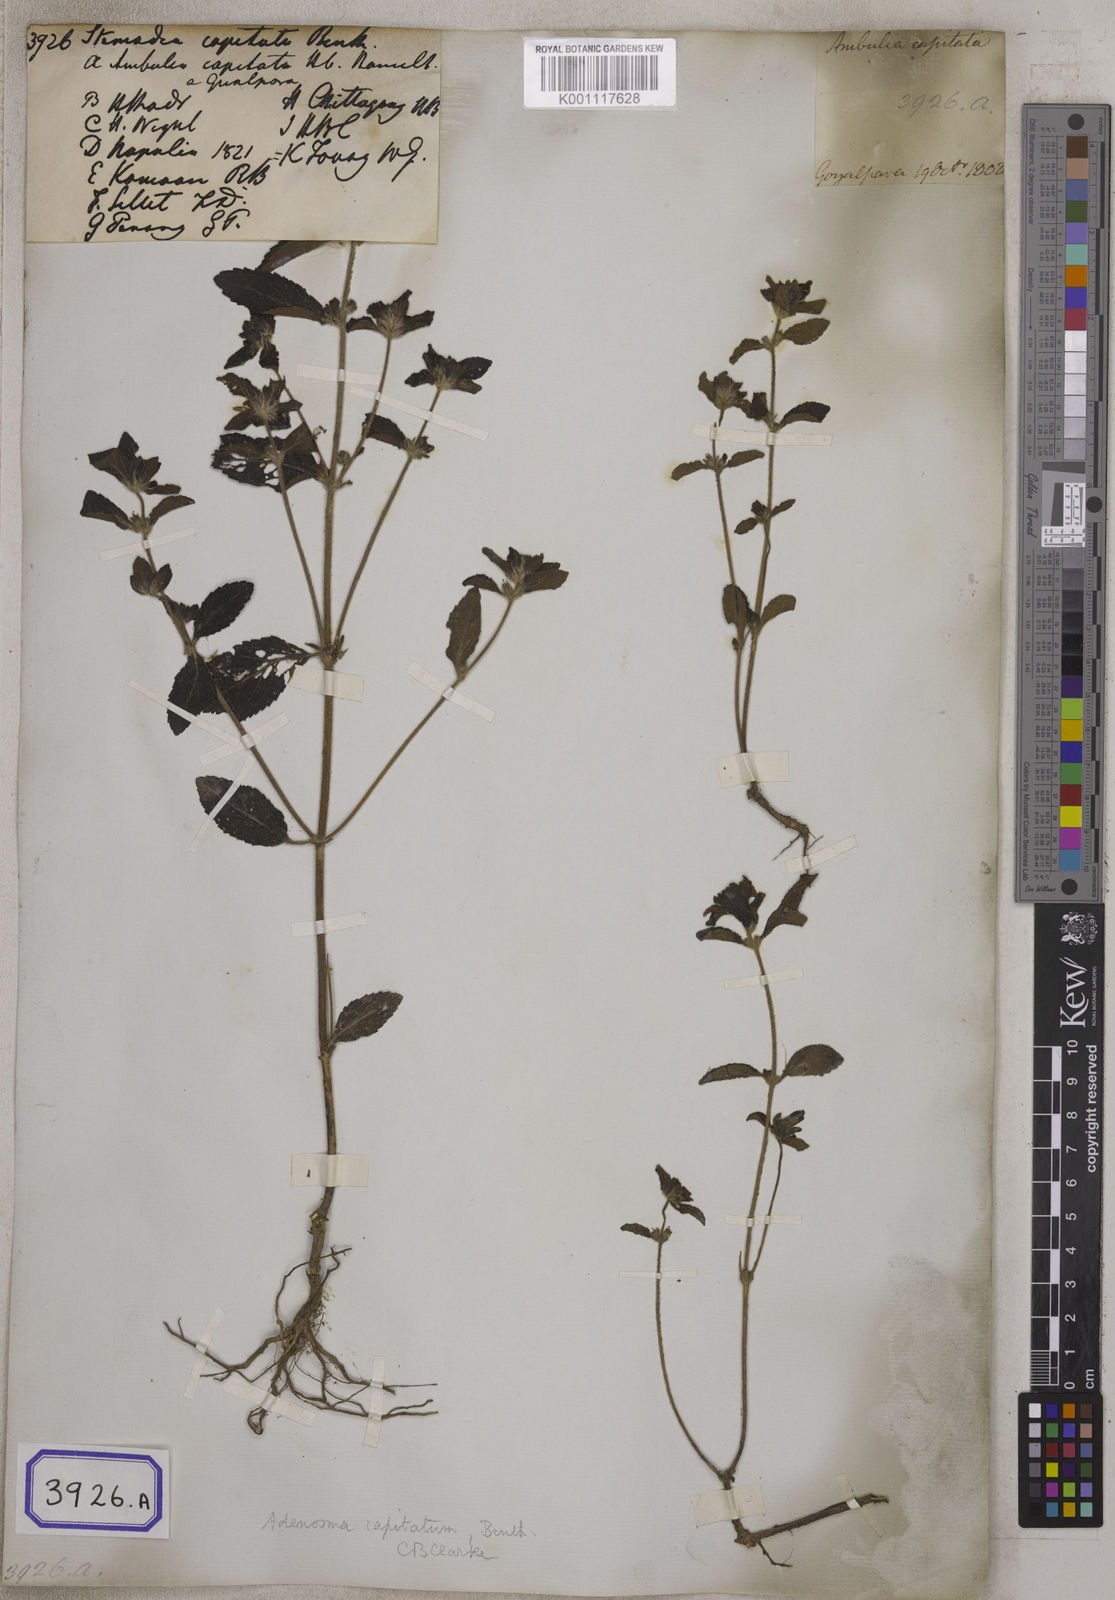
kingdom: Plantae
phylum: Tracheophyta
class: Magnoliopsida
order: Lamiales
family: Plantaginaceae
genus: Stemodia
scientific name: Stemodia
